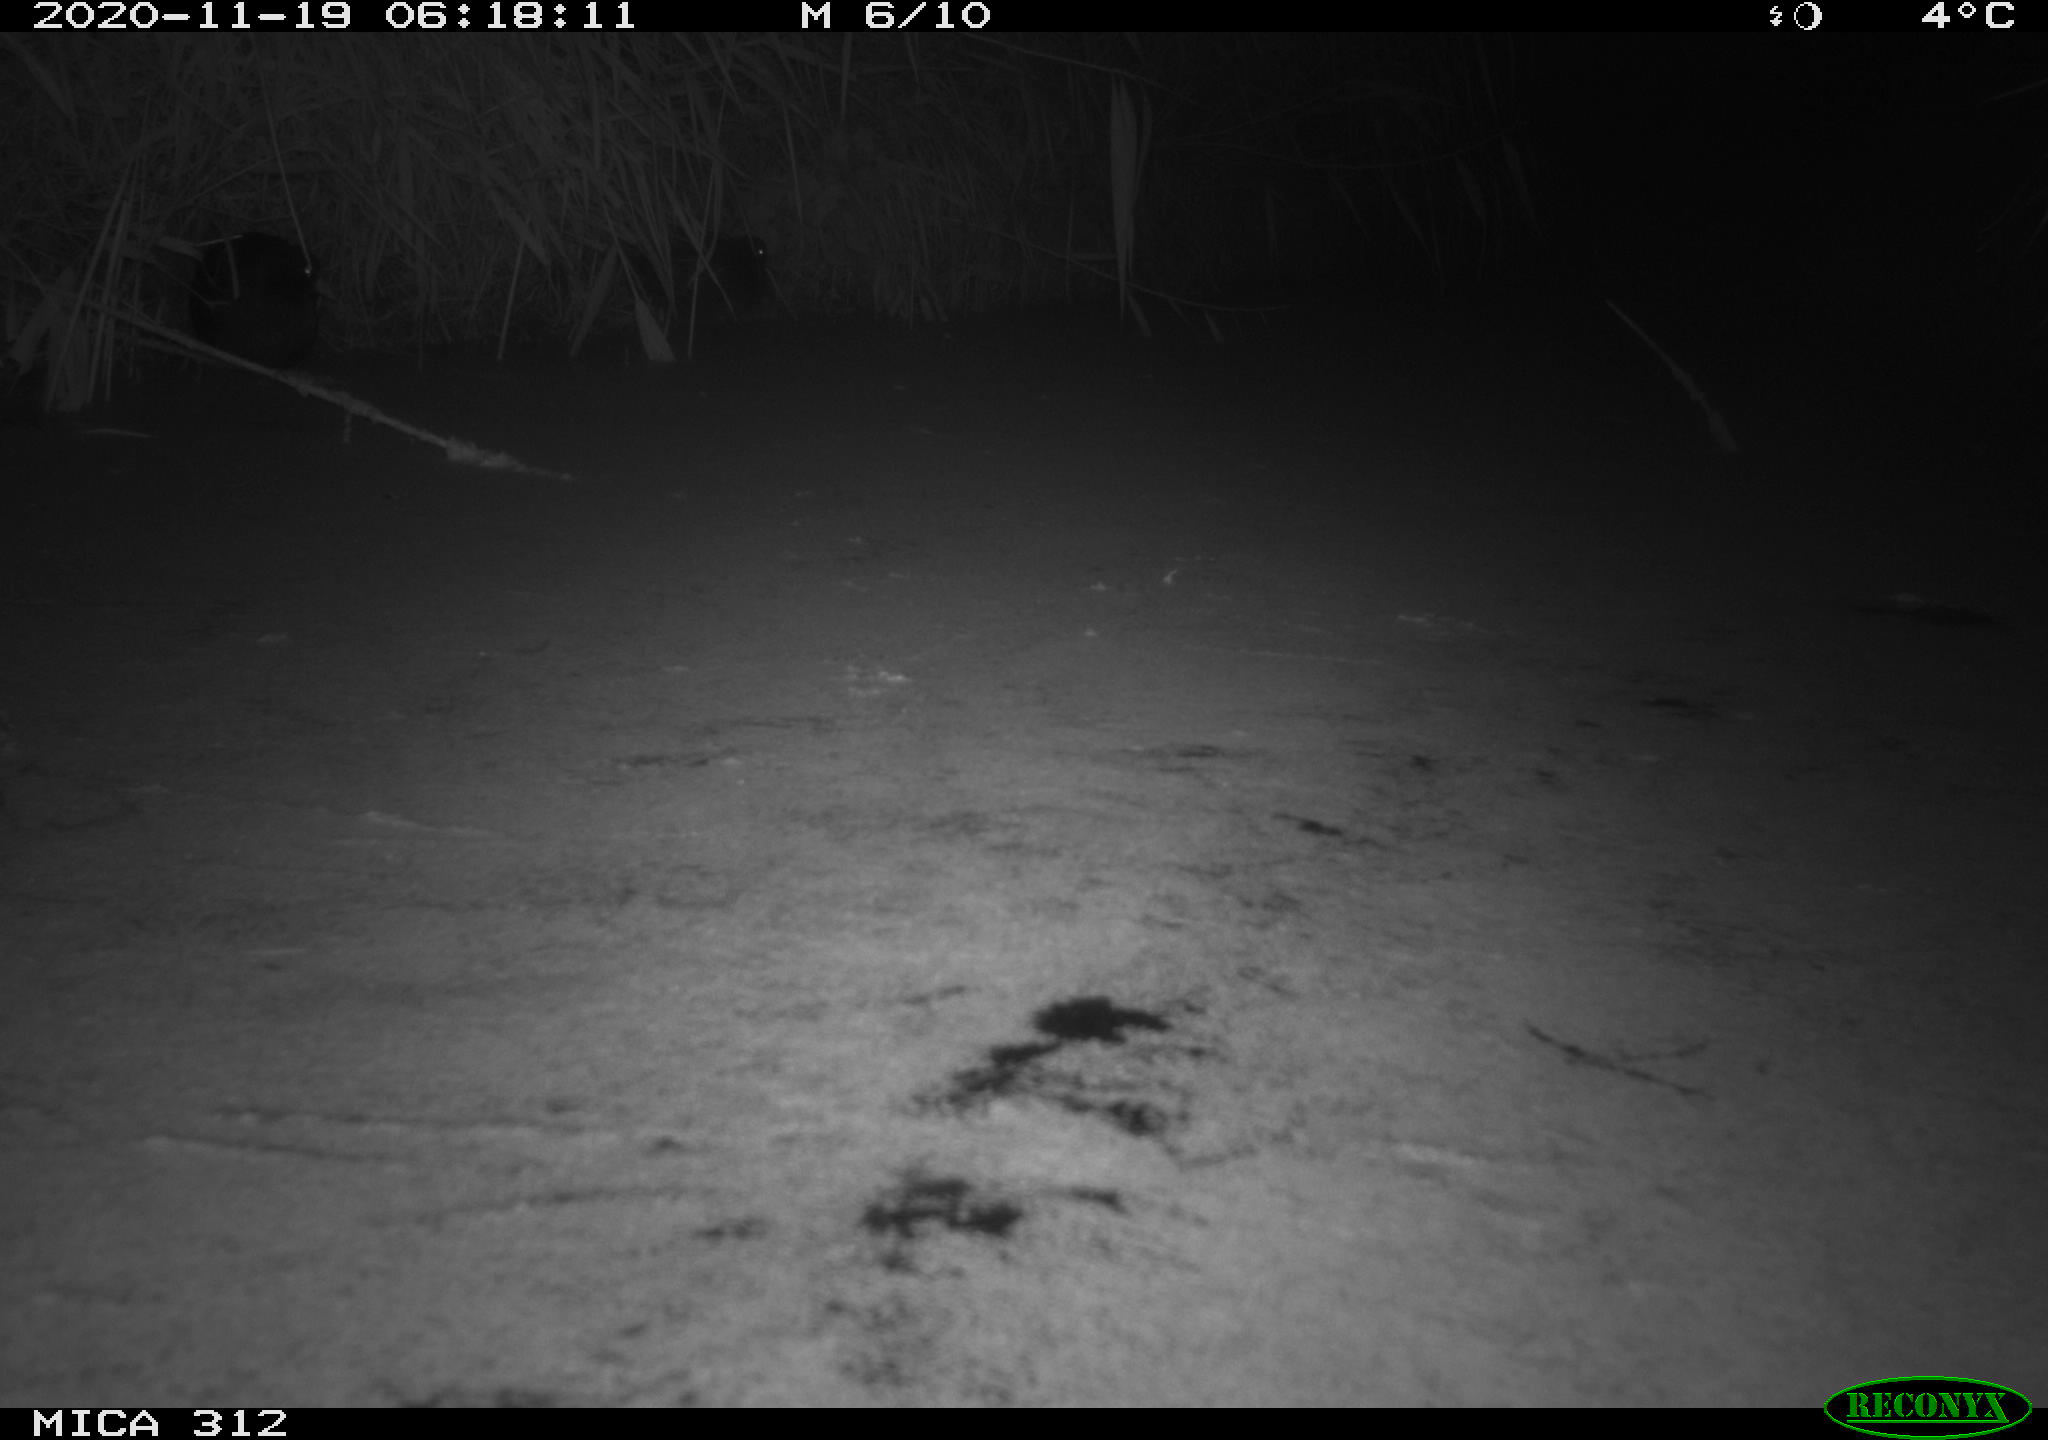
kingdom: Animalia
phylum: Chordata
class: Mammalia
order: Rodentia
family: Muridae
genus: Rattus
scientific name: Rattus norvegicus
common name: Brown rat
